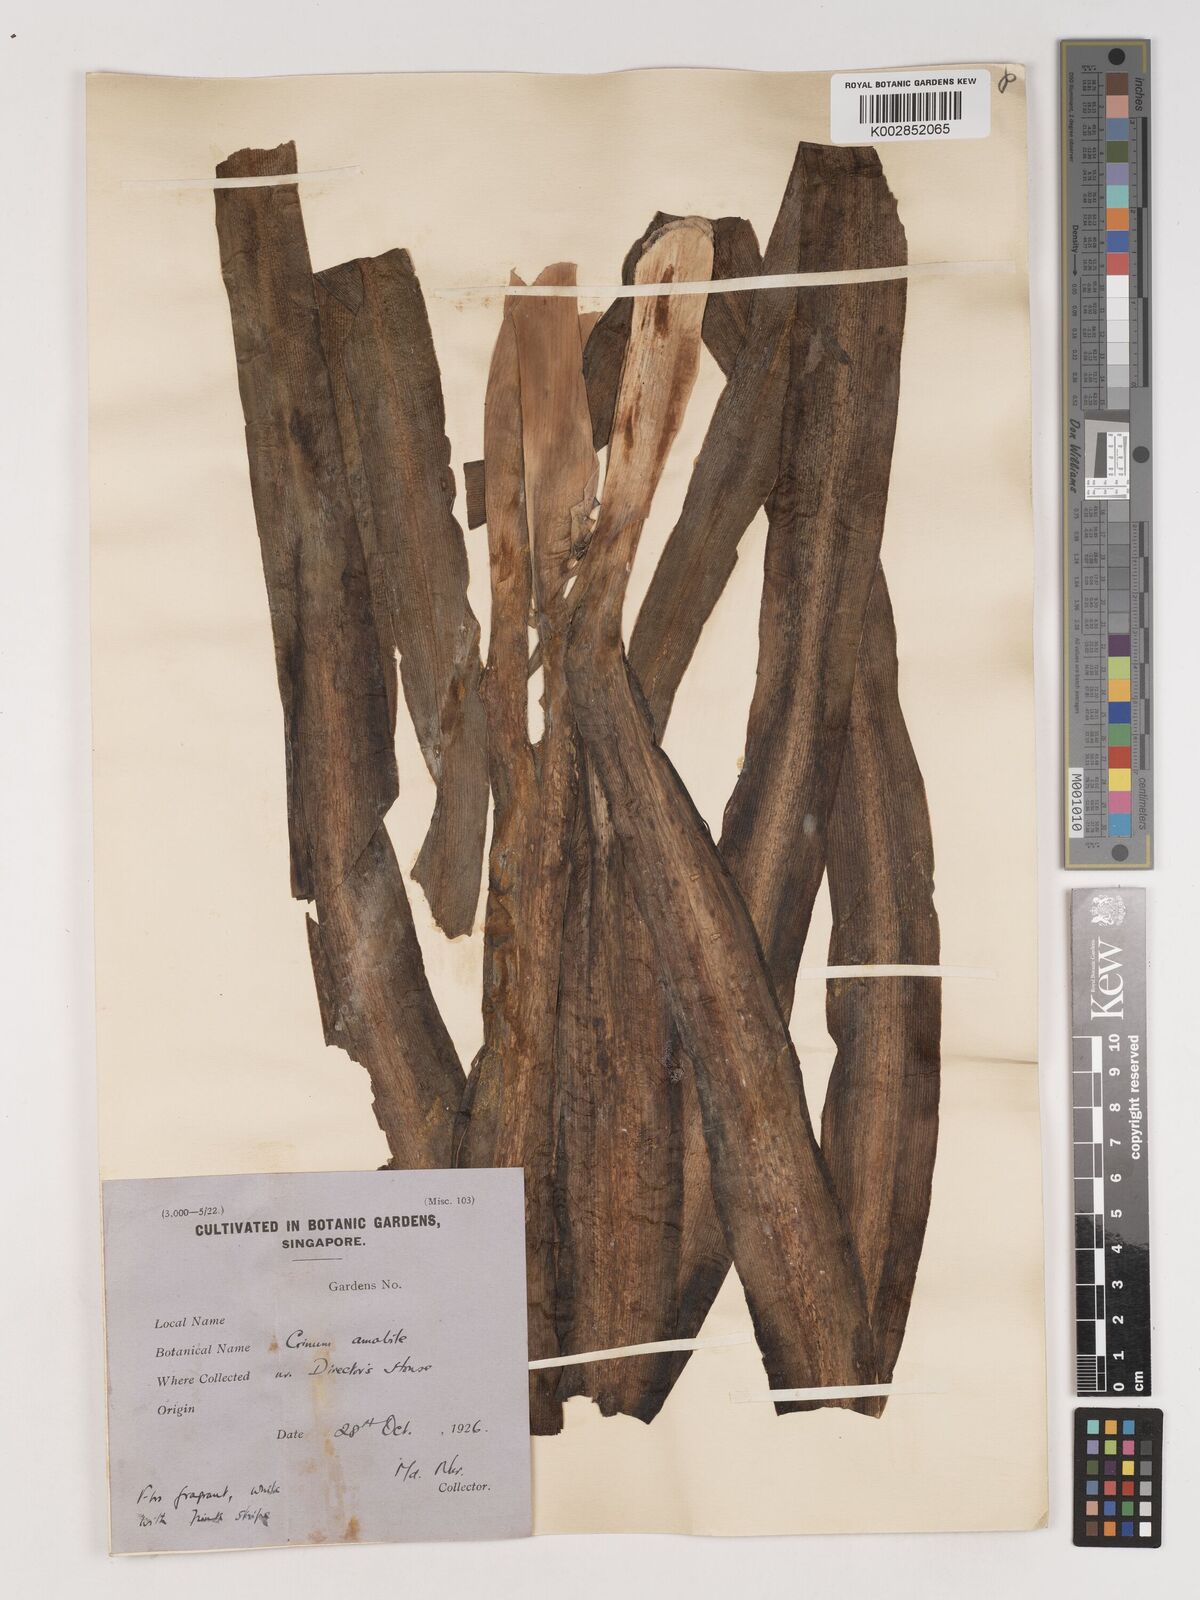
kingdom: Plantae
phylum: Tracheophyta
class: Liliopsida
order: Asparagales
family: Amaryllidaceae
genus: Crinum
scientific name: Crinum amabile
